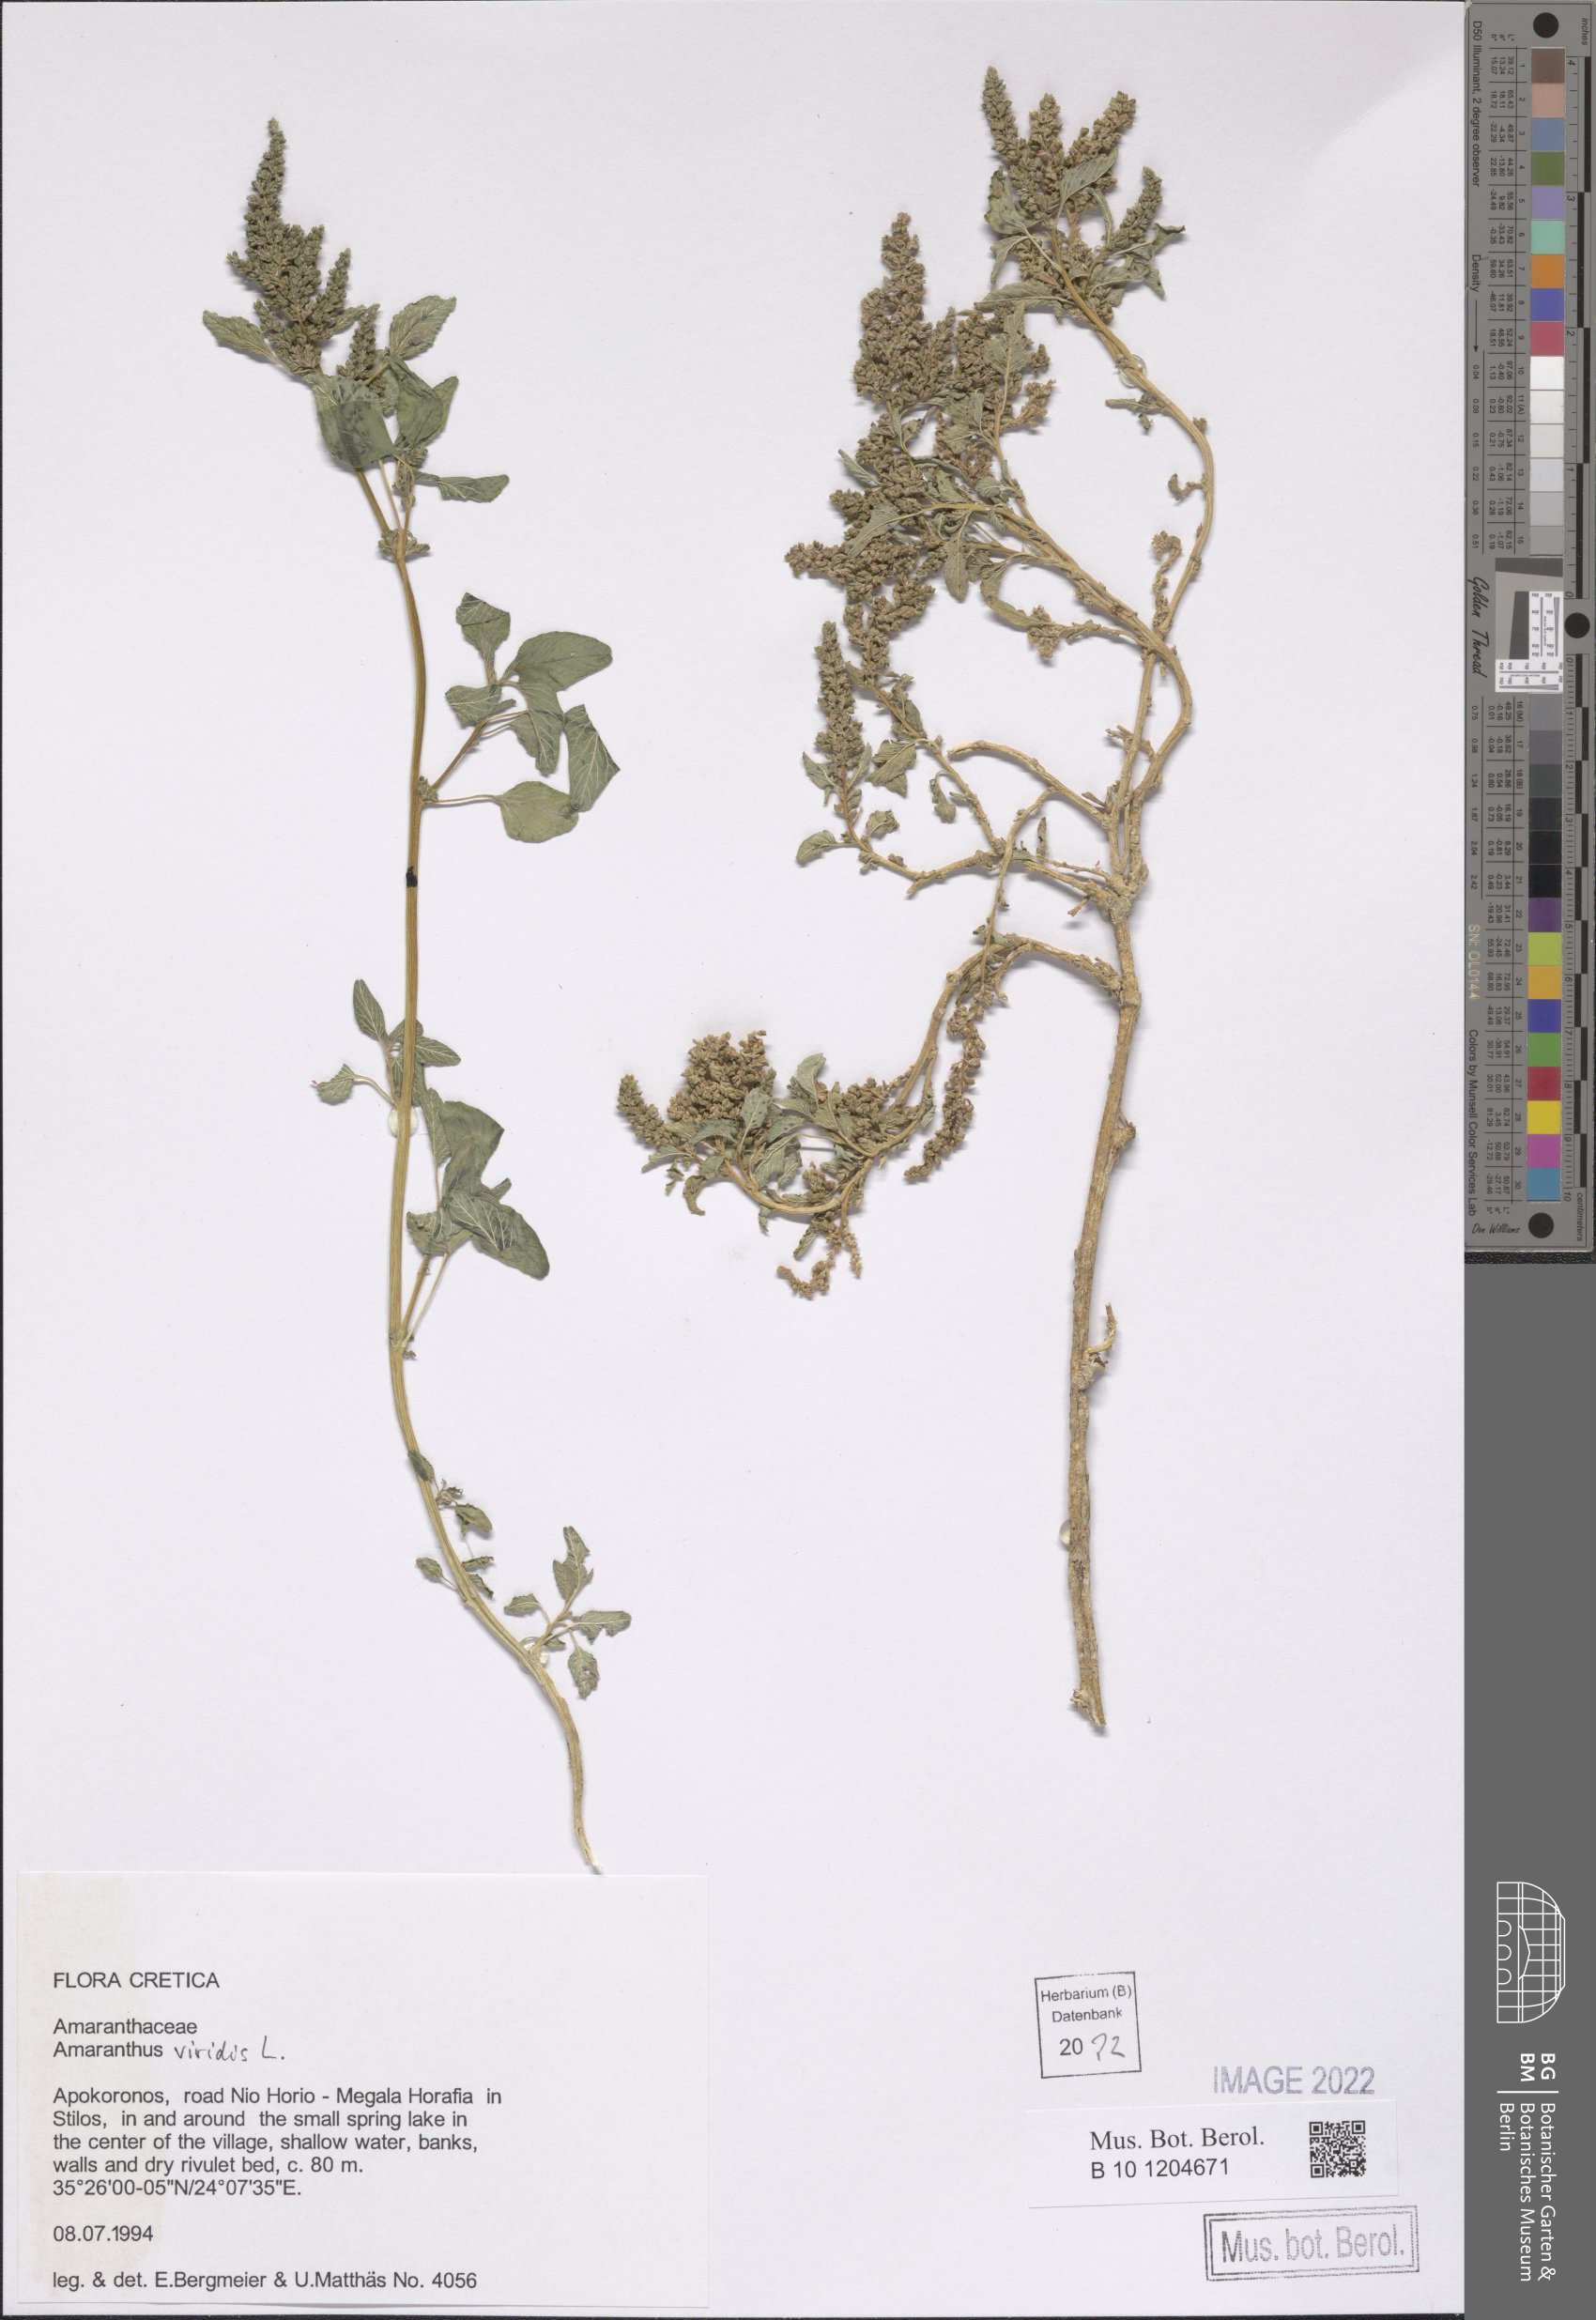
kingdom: Plantae
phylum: Tracheophyta
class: Magnoliopsida
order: Caryophyllales
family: Amaranthaceae
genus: Amaranthus
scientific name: Amaranthus viridis
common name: Slender amaranth
